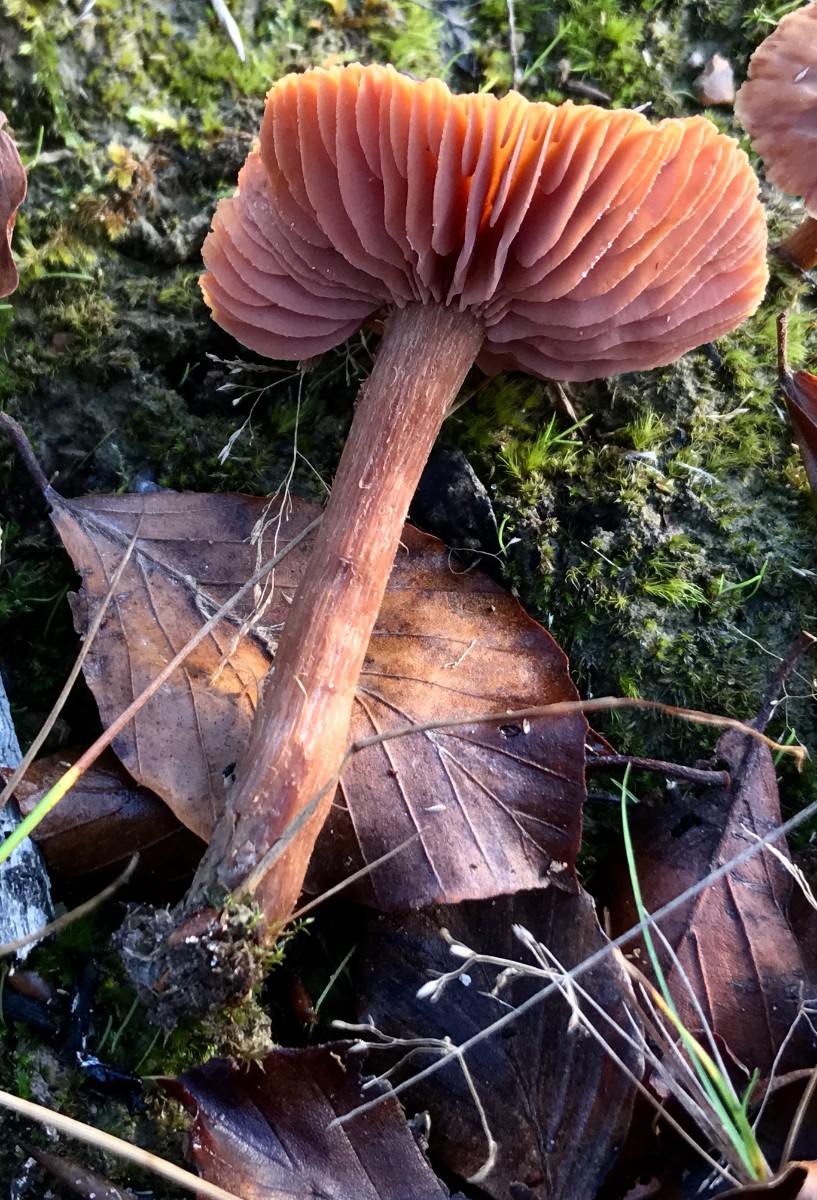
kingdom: Fungi
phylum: Basidiomycota
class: Agaricomycetes
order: Agaricales
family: Hydnangiaceae
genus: Laccaria
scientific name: Laccaria proxima
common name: stor ametysthat
